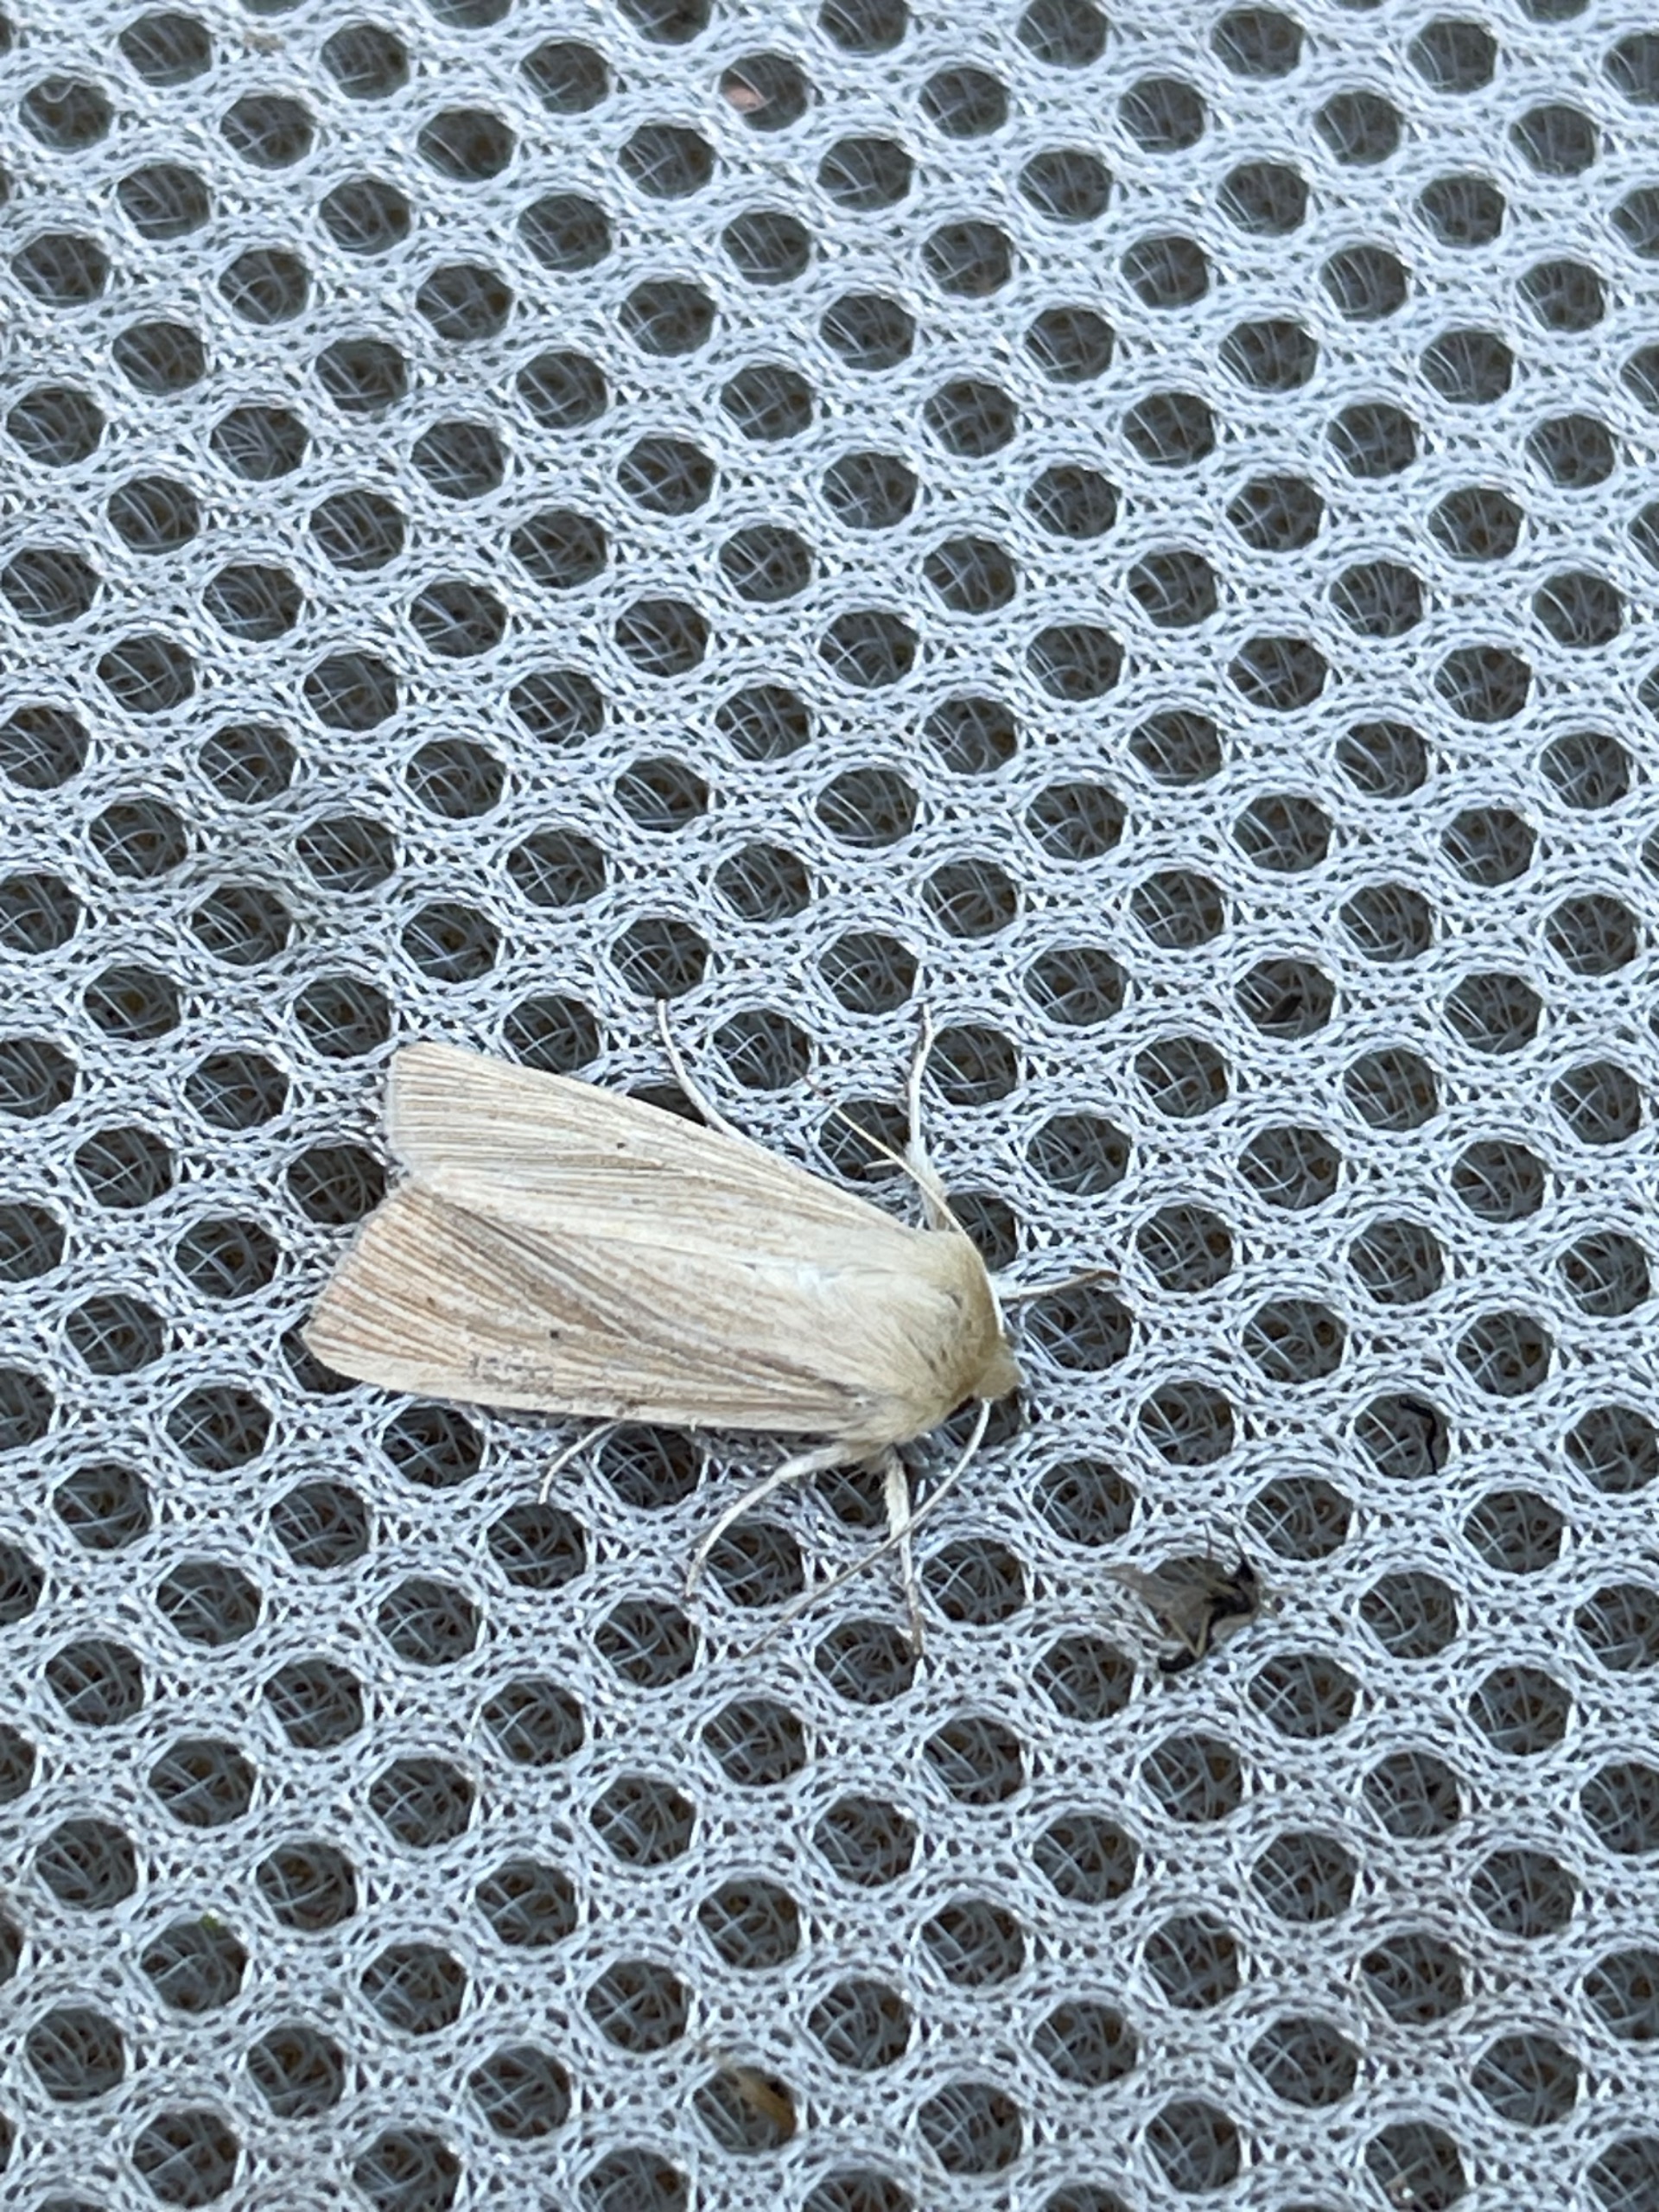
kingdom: Animalia
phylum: Arthropoda
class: Insecta
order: Lepidoptera
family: Noctuidae
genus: Mythimna
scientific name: Mythimna pallens
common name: Halmugle
